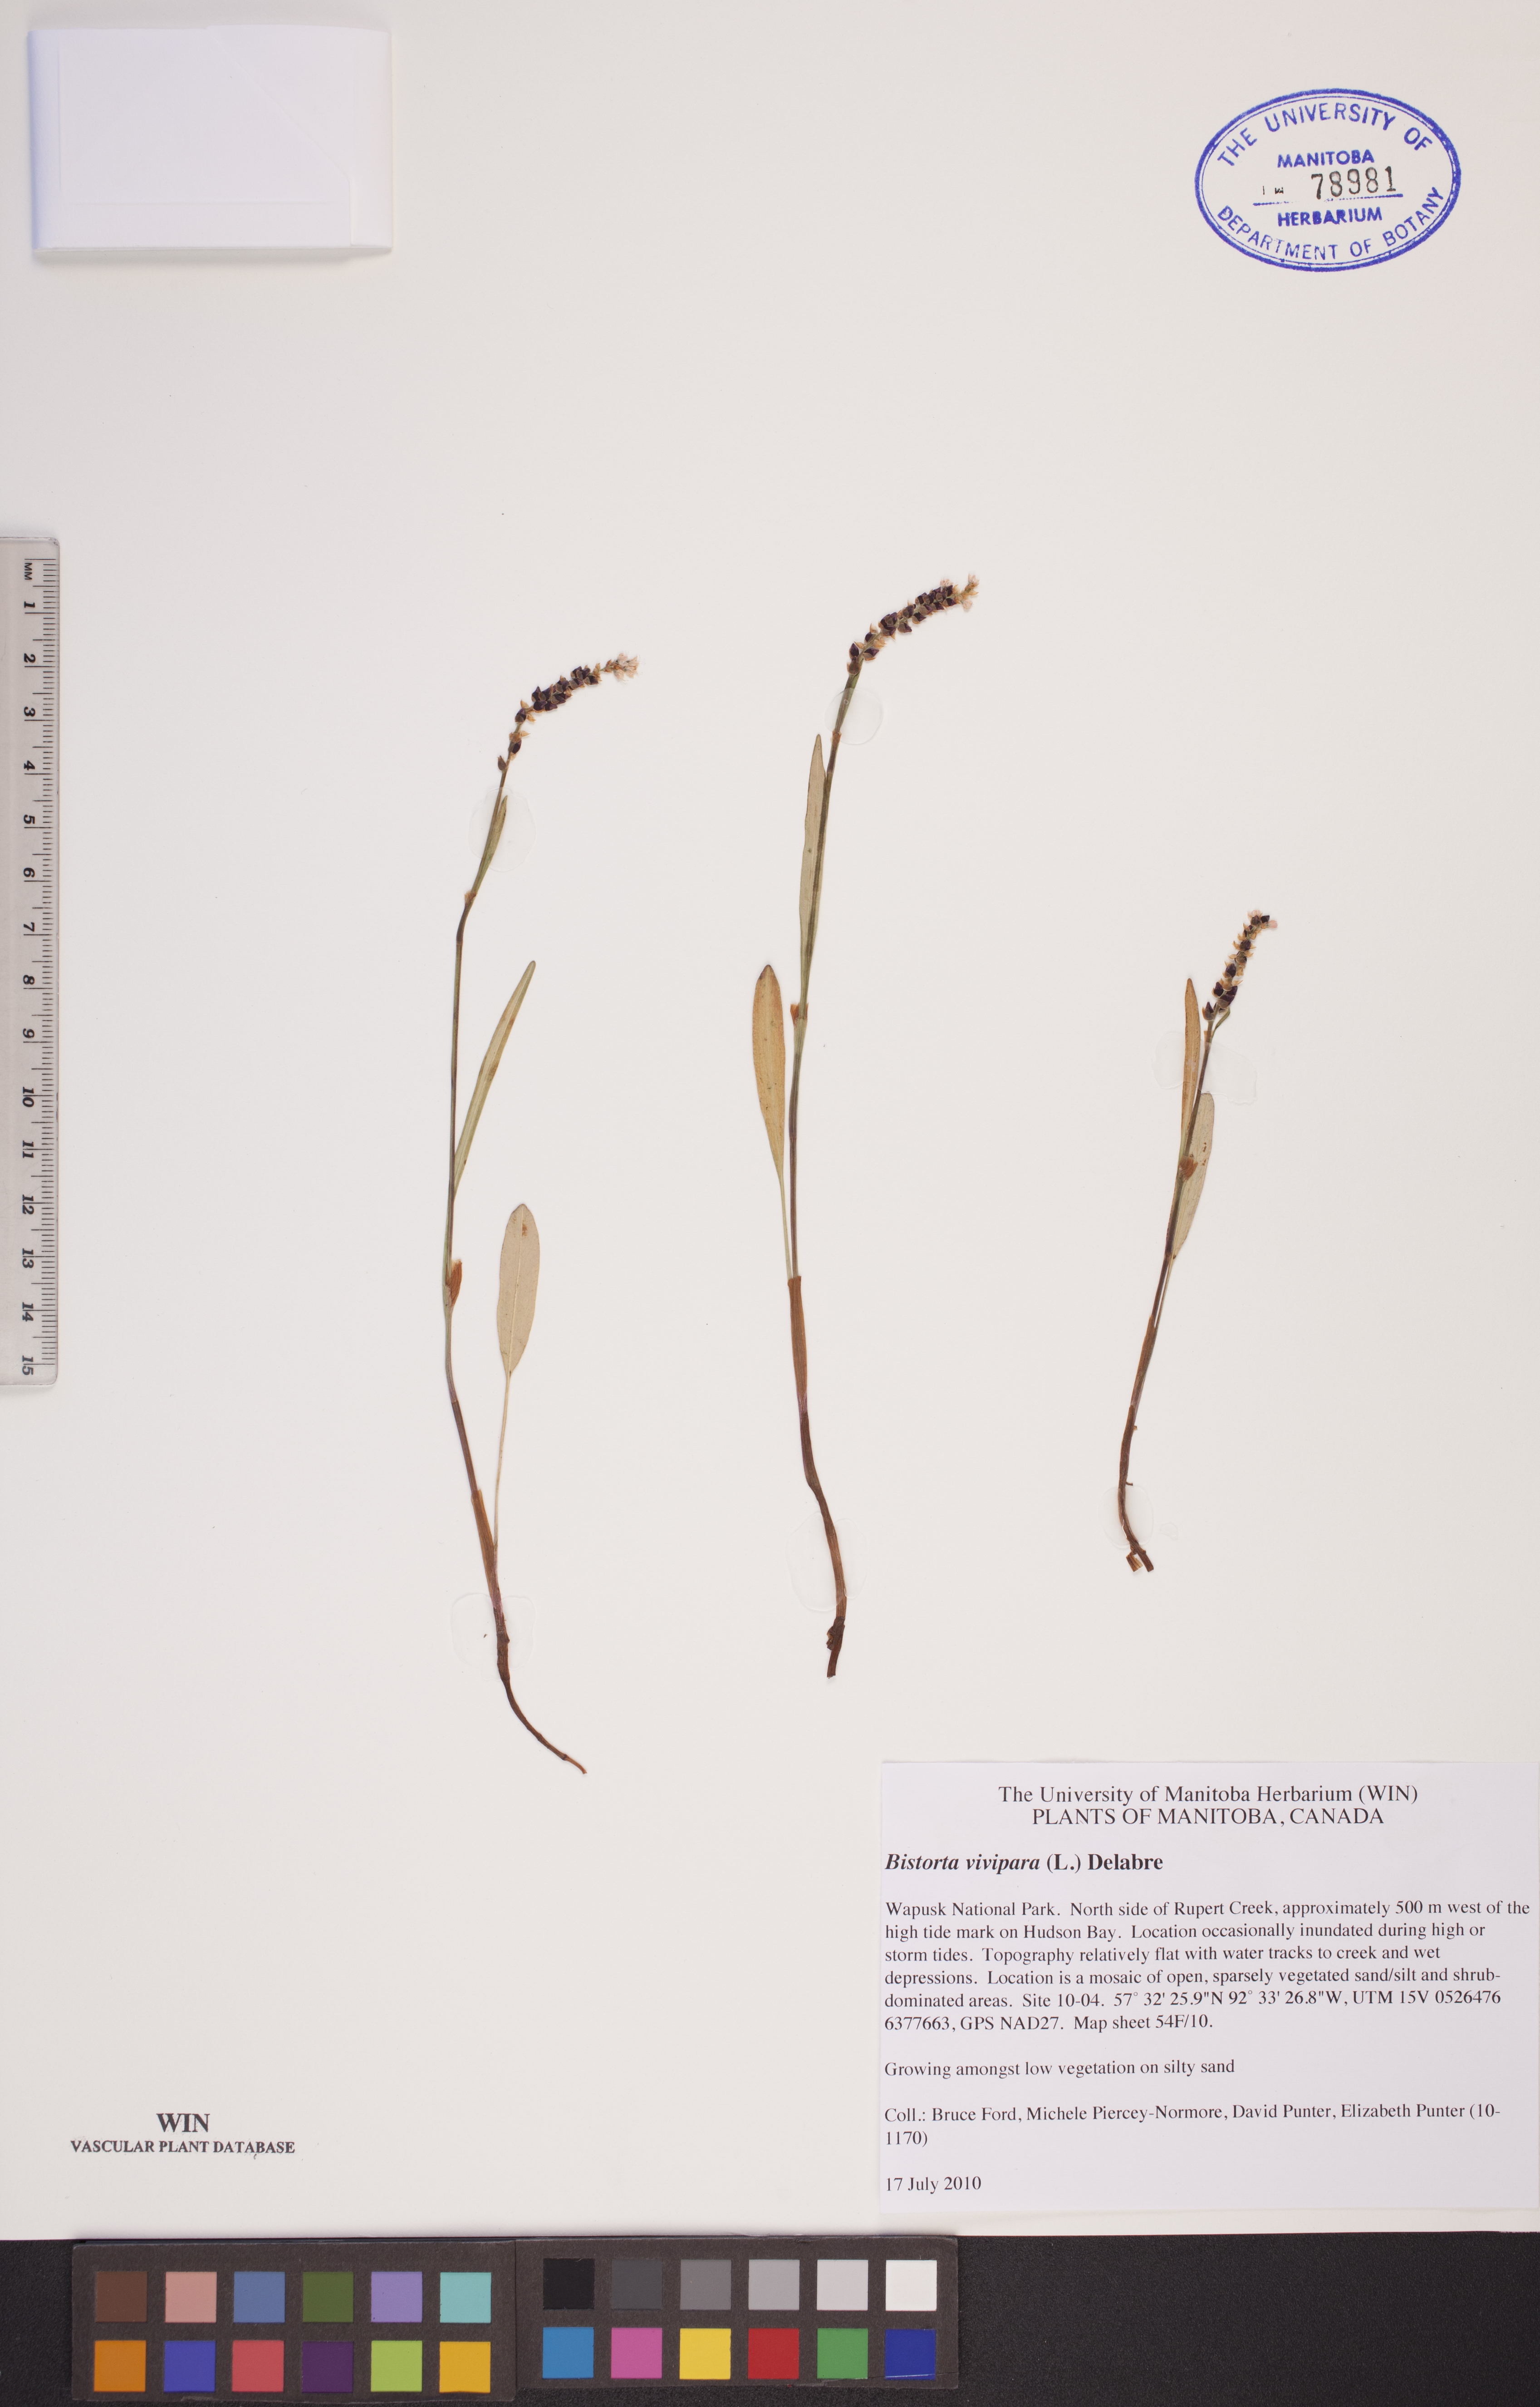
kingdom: Plantae
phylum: Tracheophyta
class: Magnoliopsida
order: Caryophyllales
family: Polygonaceae
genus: Bistorta
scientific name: Bistorta vivipara
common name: Alpine bistort
